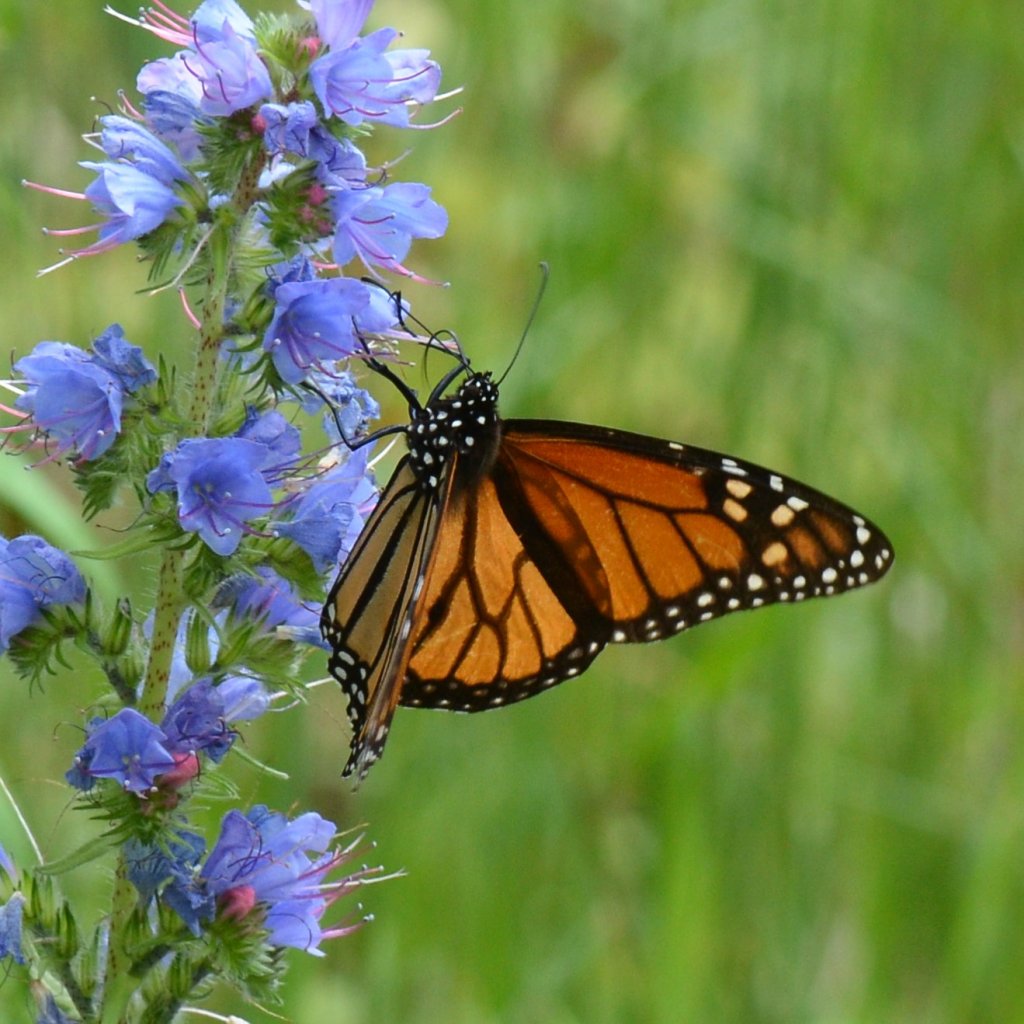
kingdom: Animalia
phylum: Arthropoda
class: Insecta
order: Lepidoptera
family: Nymphalidae
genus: Danaus
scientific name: Danaus plexippus
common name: Monarch
